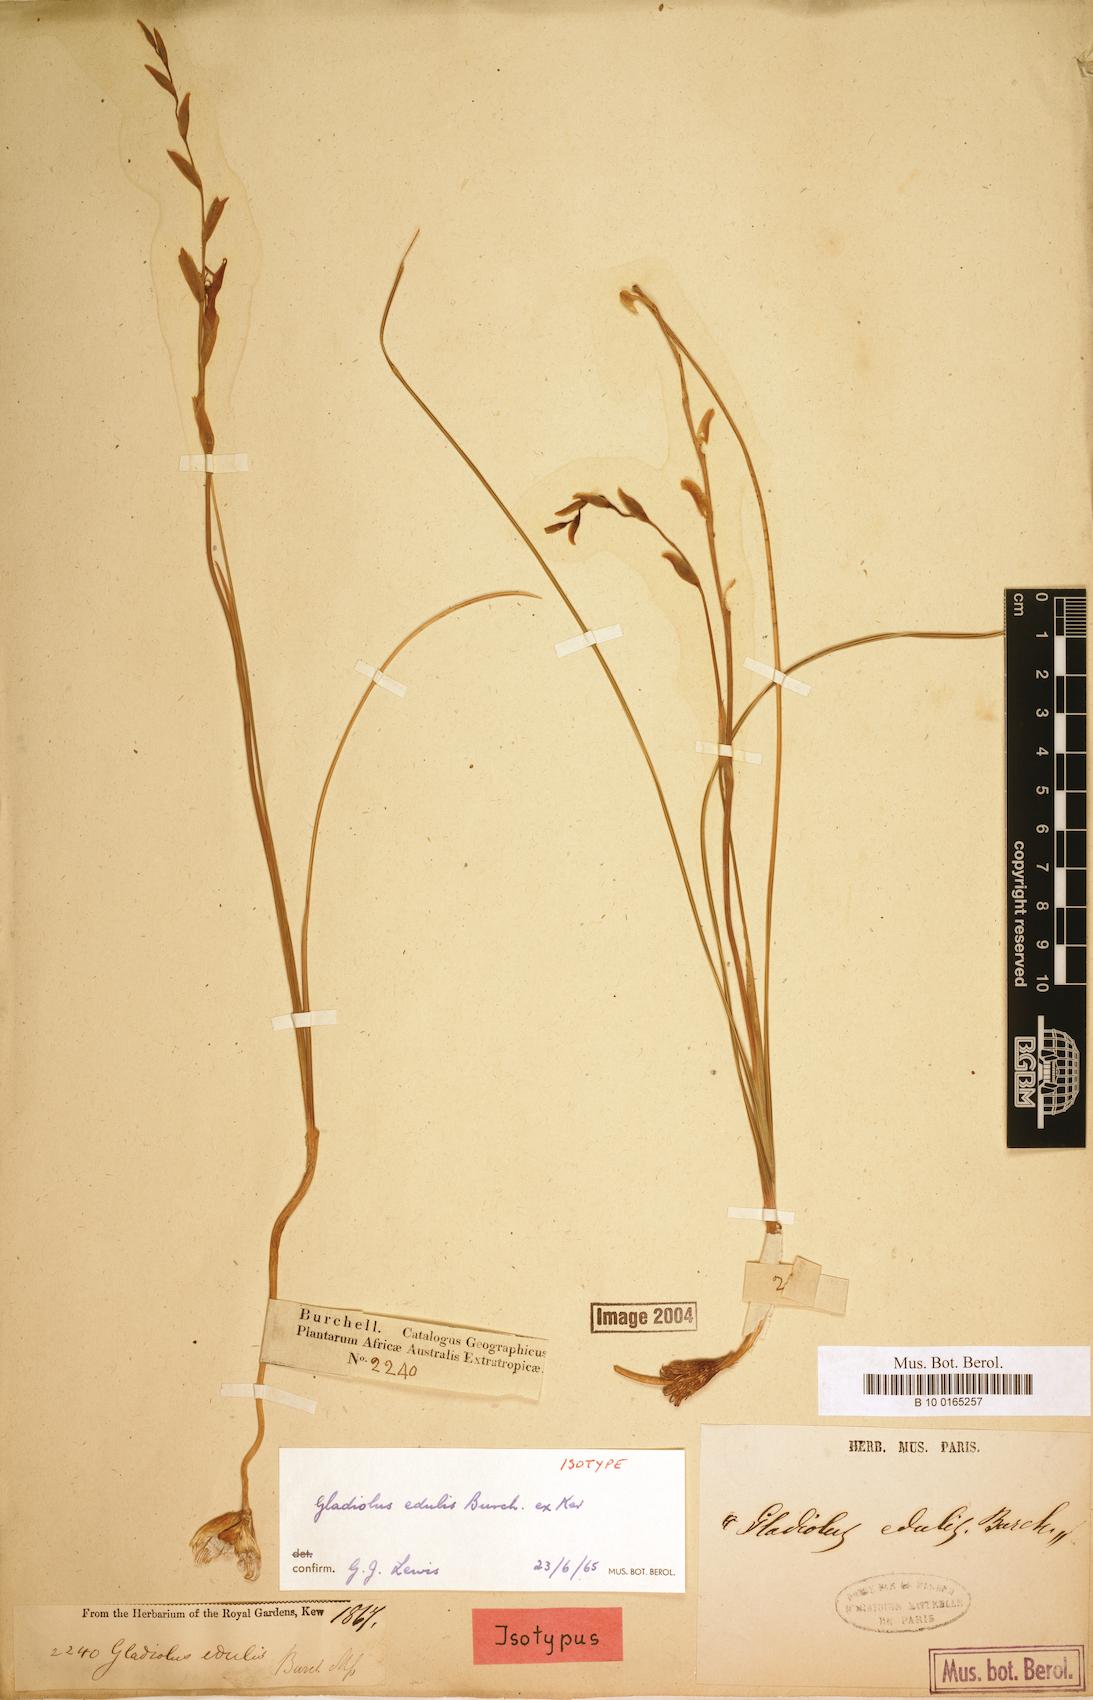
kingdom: Plantae
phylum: Tracheophyta
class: Liliopsida
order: Asparagales
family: Iridaceae
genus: Gladiolus
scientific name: Gladiolus permeabilis
